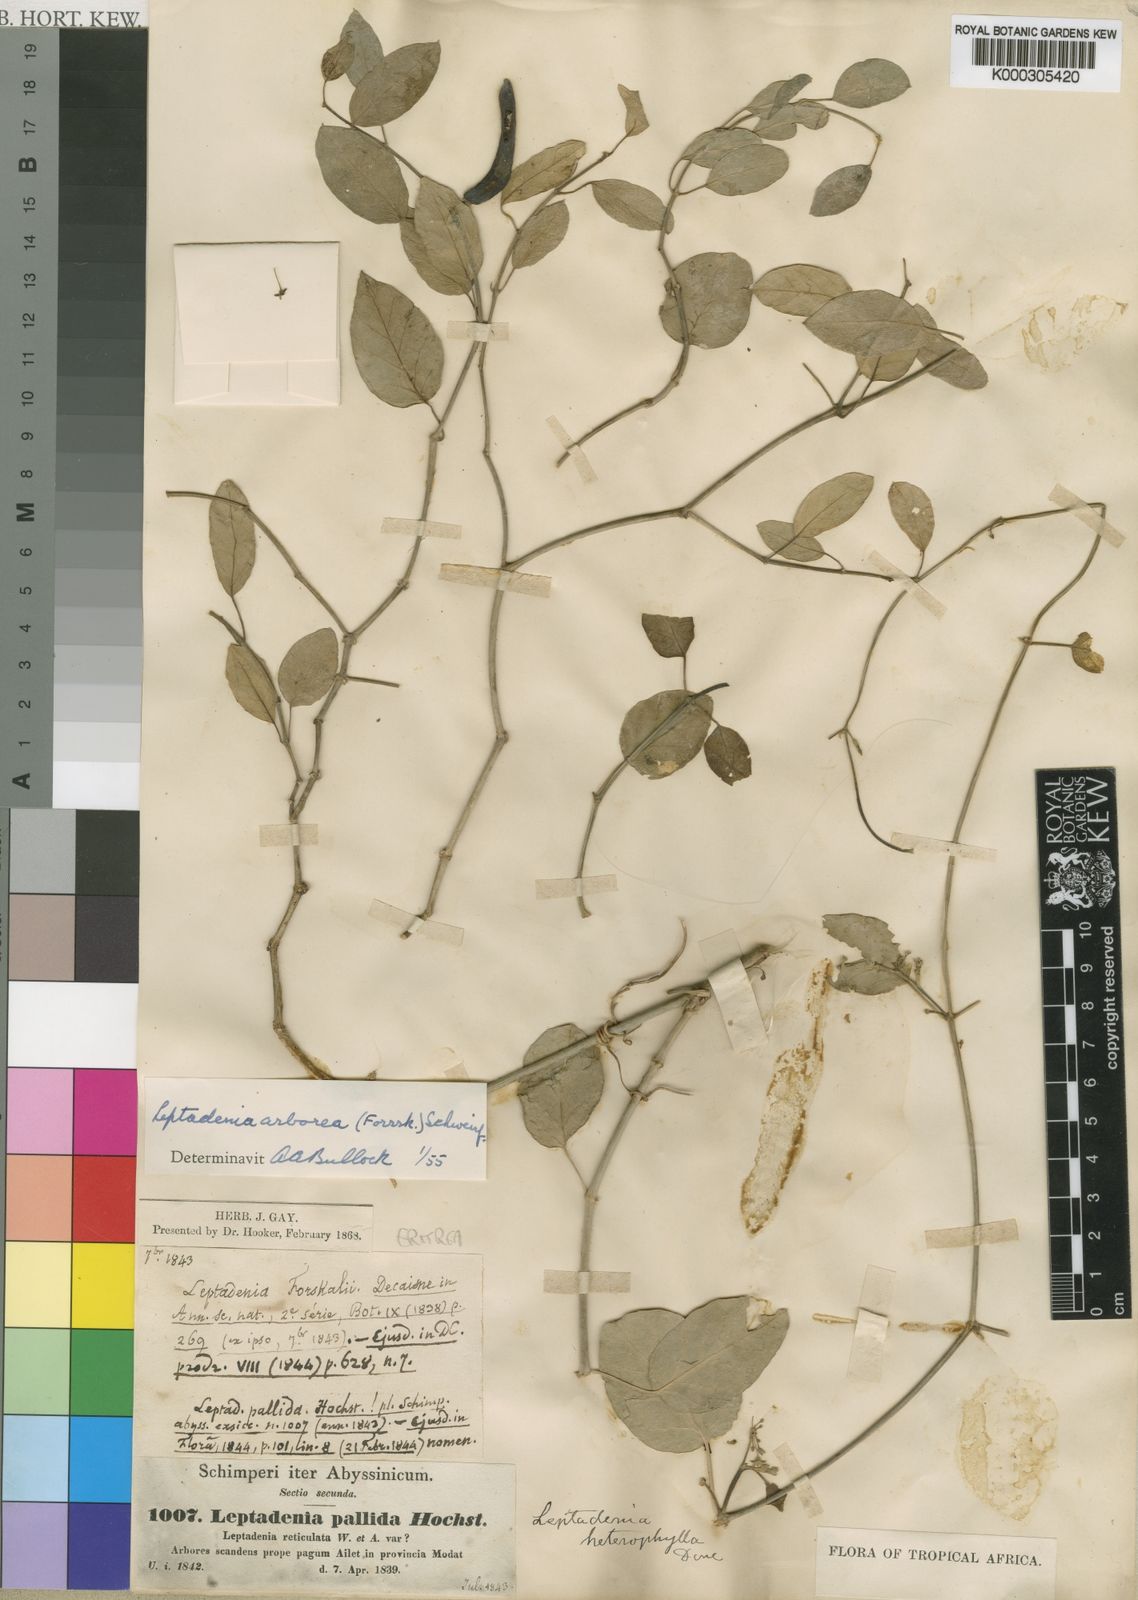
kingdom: Plantae
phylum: Tracheophyta
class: Magnoliopsida
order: Gentianales
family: Apocynaceae
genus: Leptadenia
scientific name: Leptadenia arborea
